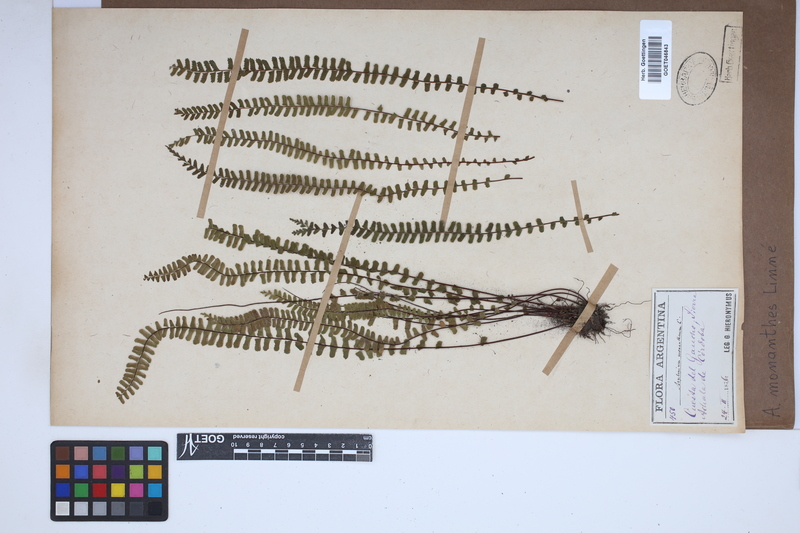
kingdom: Plantae
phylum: Tracheophyta
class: Polypodiopsida
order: Polypodiales
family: Aspleniaceae
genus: Asplenium
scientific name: Asplenium monanthes
